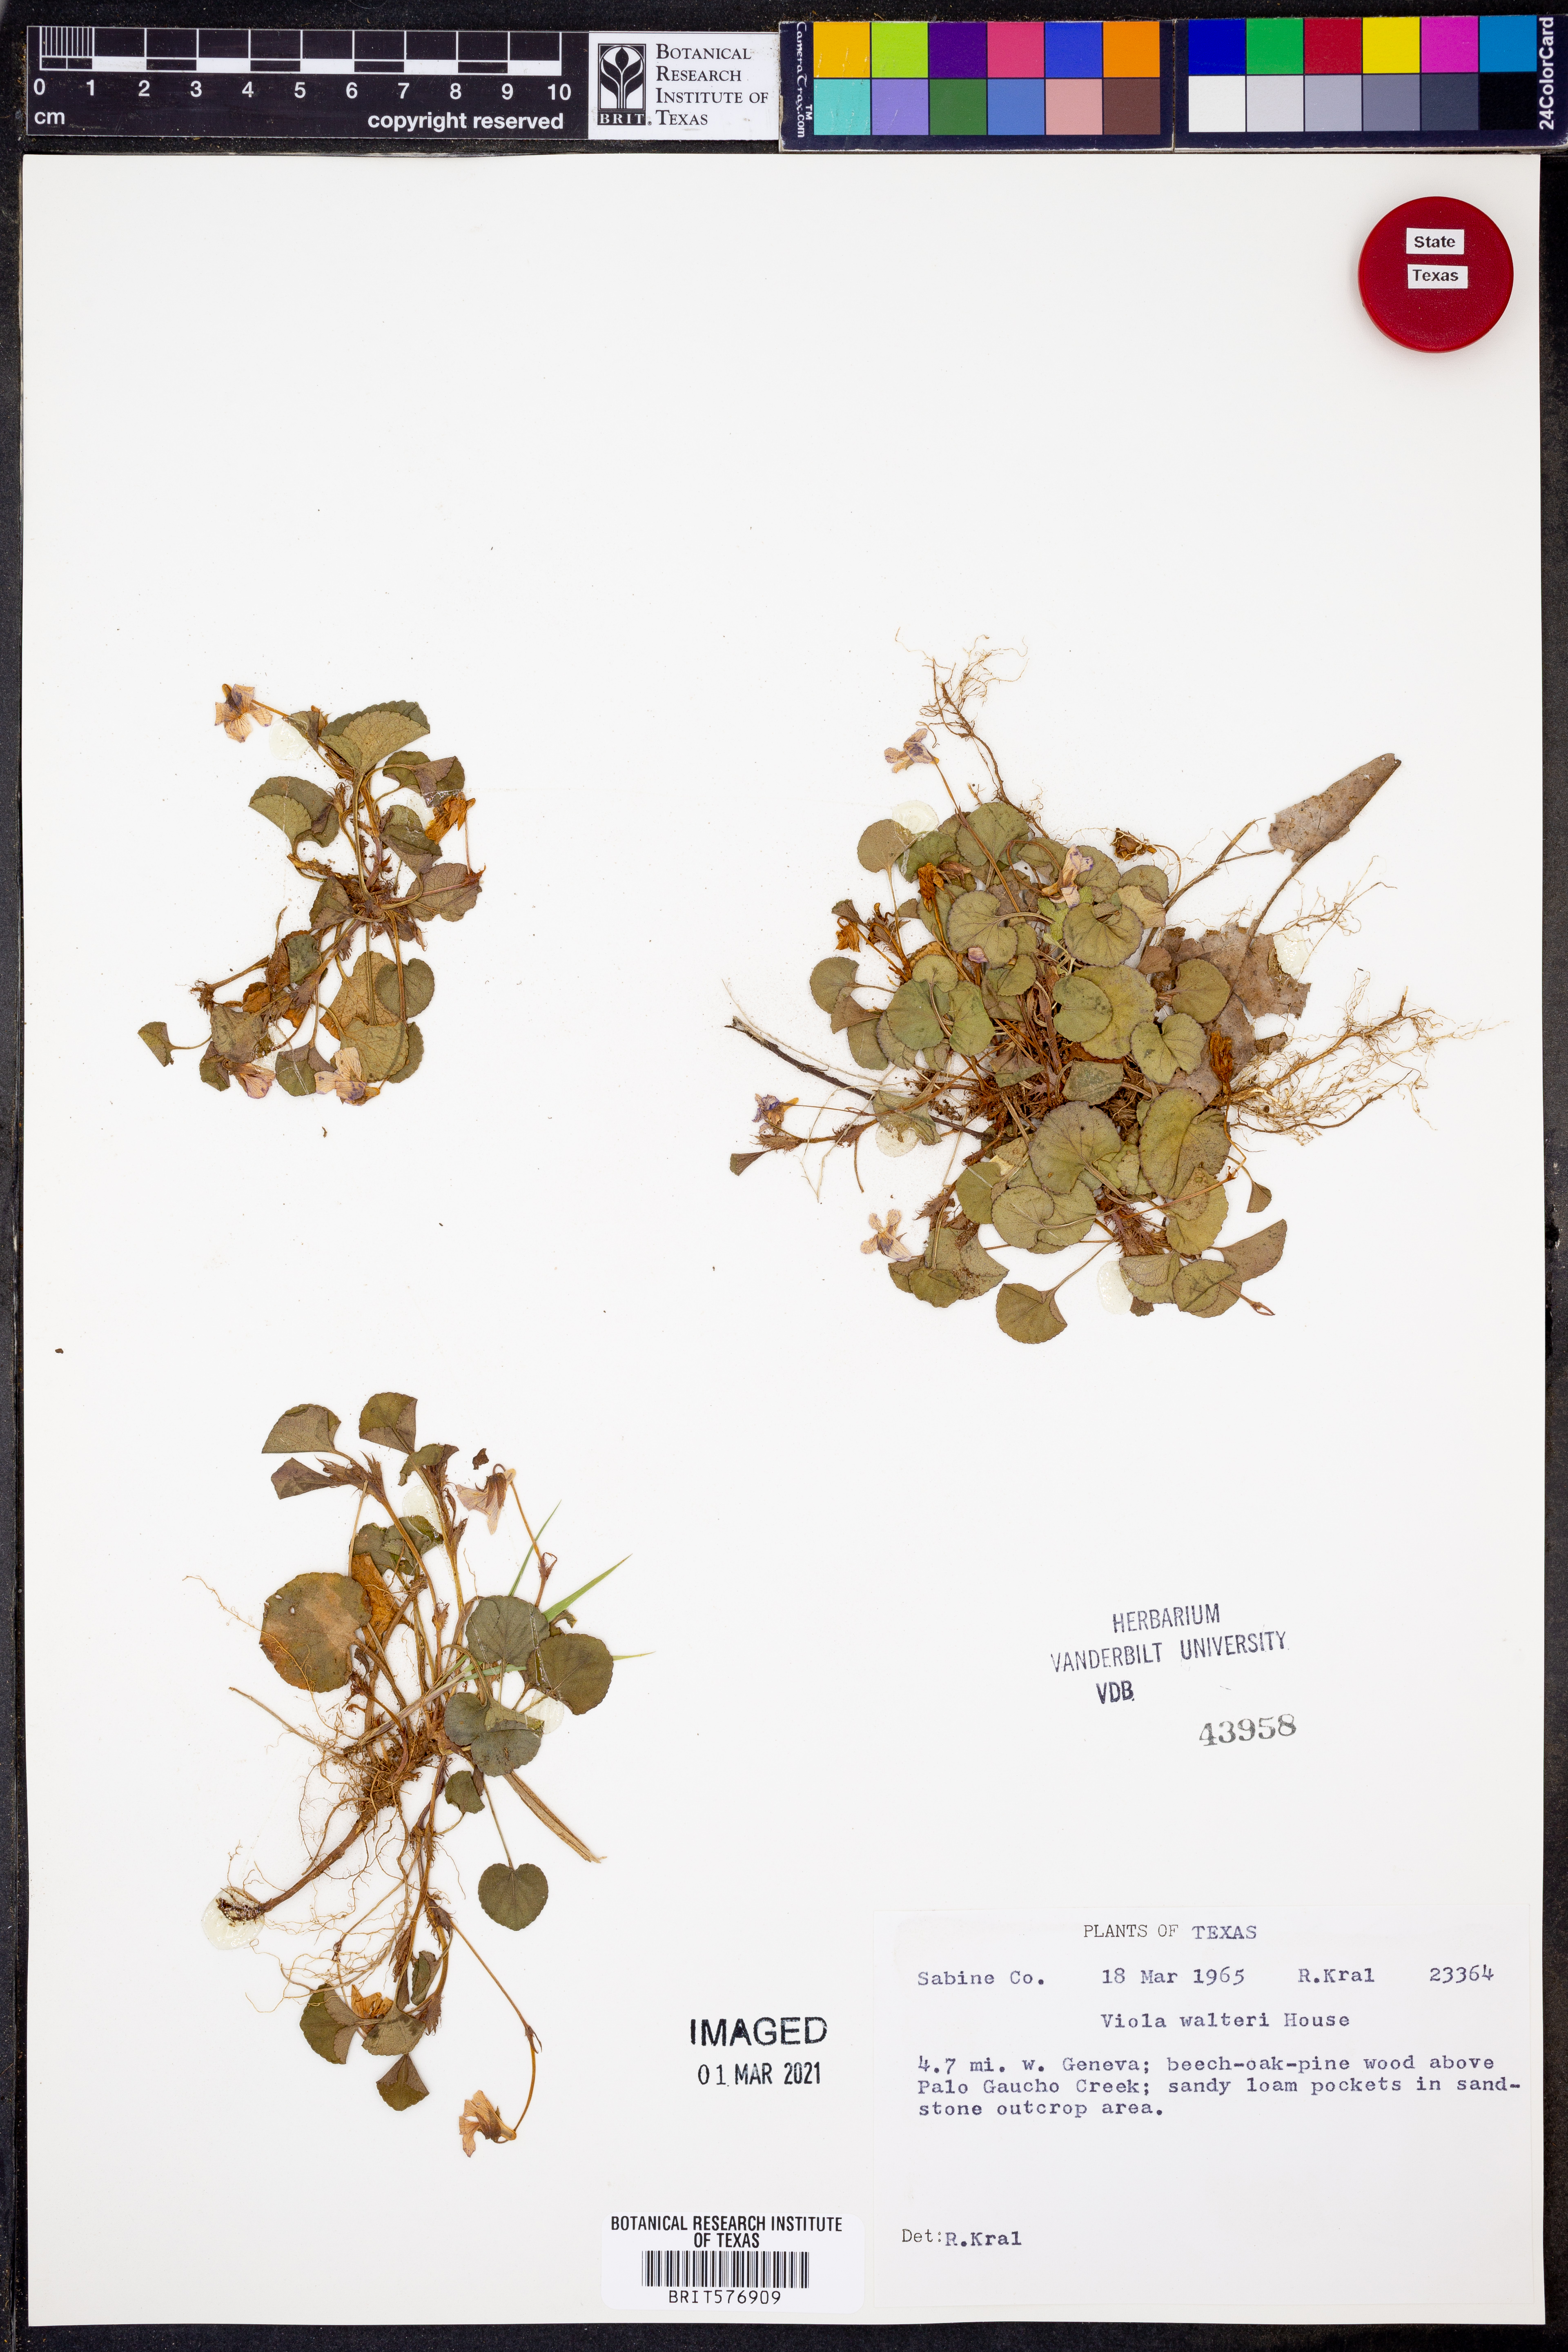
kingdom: Plantae
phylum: Tracheophyta
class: Magnoliopsida
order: Malpighiales
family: Violaceae
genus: Viola
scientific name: Viola walteri
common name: Prostrate southern violet
